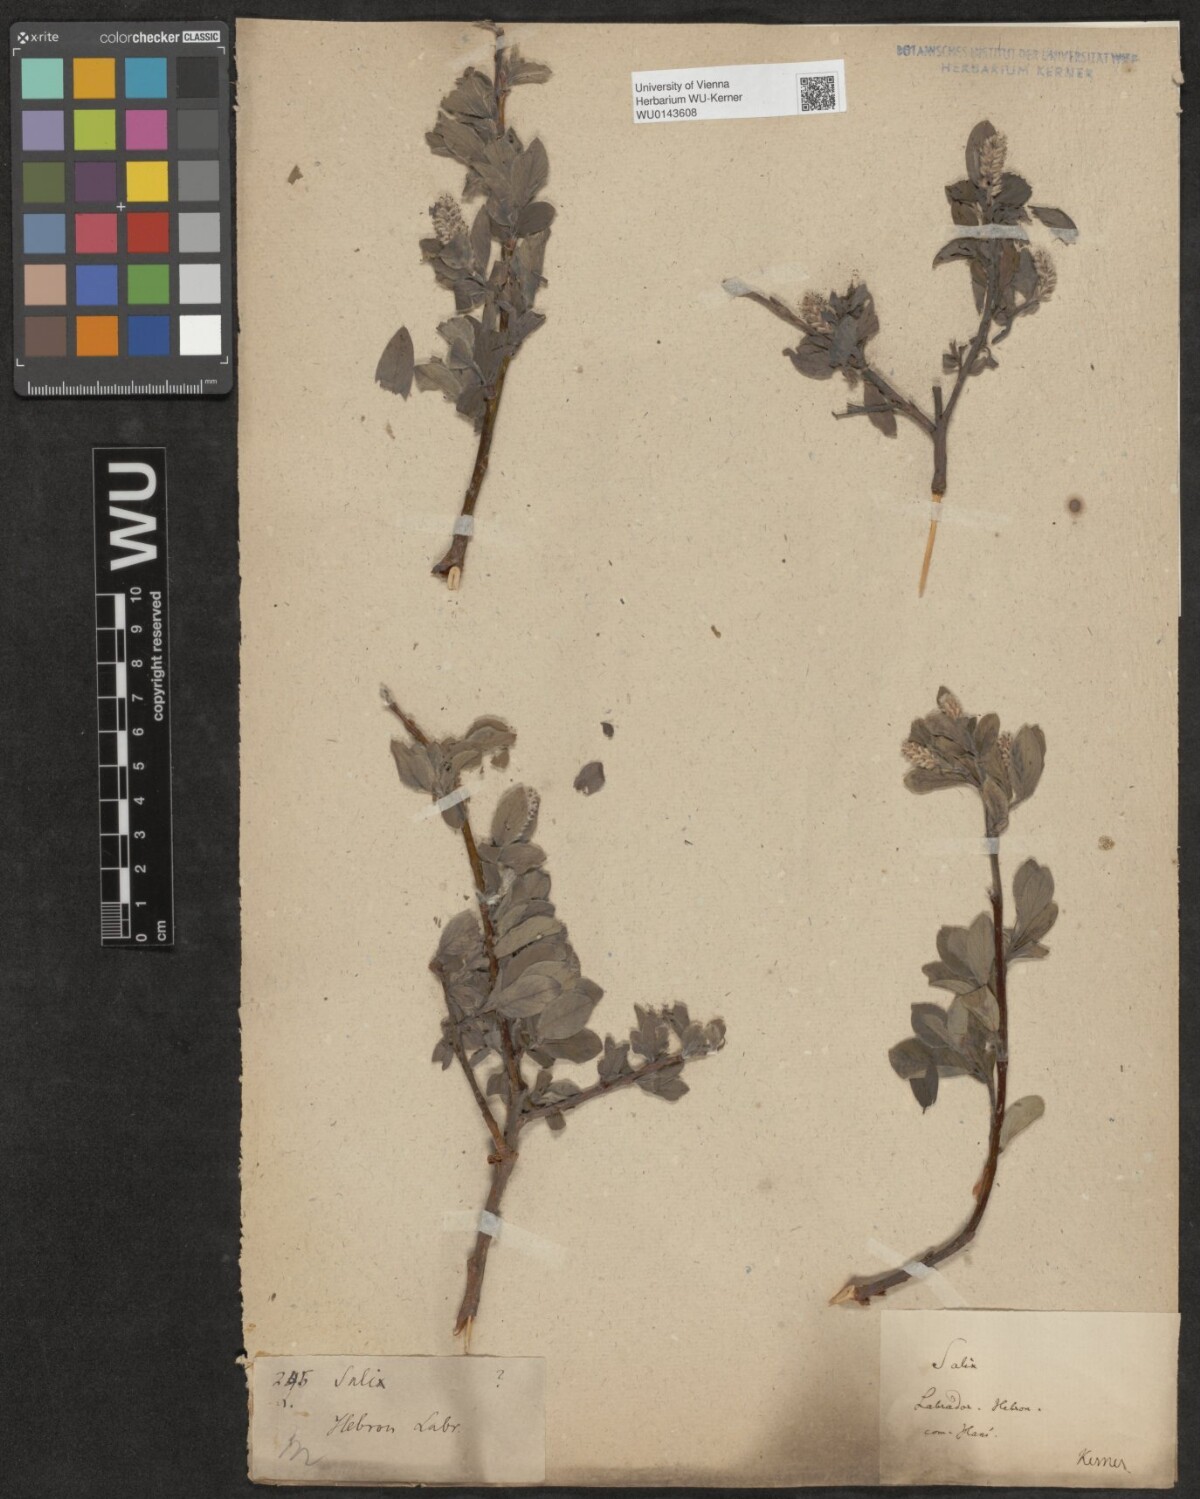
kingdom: Plantae
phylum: Tracheophyta
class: Magnoliopsida
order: Malpighiales
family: Salicaceae
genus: Salix
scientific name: Salix
